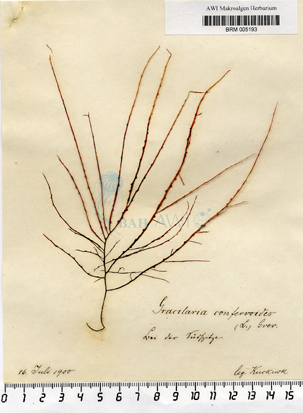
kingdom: Plantae
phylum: Rhodophyta
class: Florideophyceae
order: Gracilariales
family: Gracilariaceae
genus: Gracilaria
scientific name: Gracilaria gracilis
